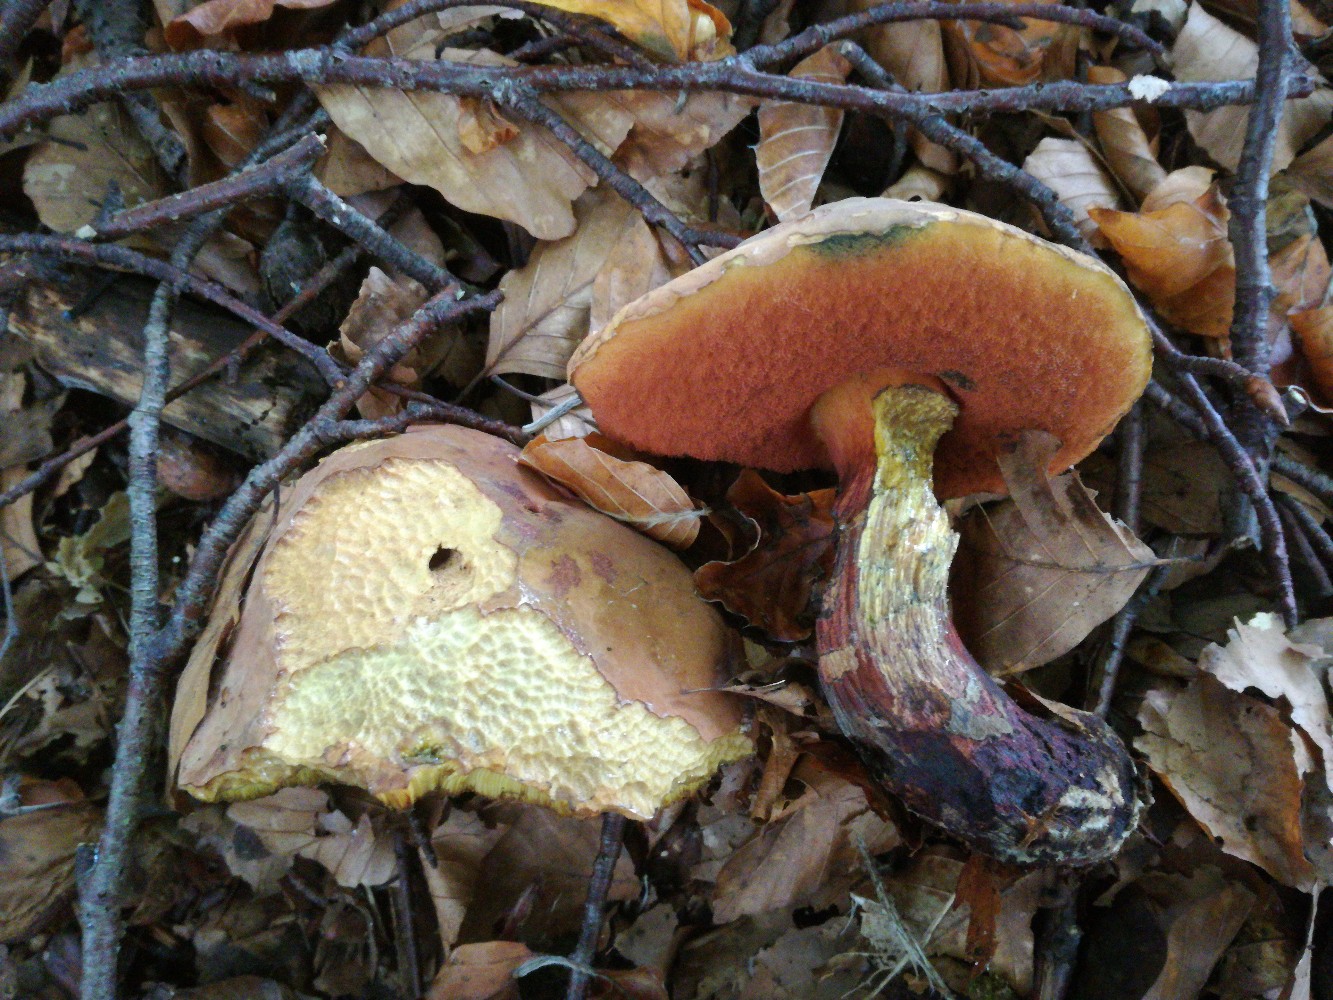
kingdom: Fungi
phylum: Basidiomycota
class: Agaricomycetes
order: Boletales
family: Boletaceae
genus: Suillellus
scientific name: Suillellus
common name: indigorørhat
